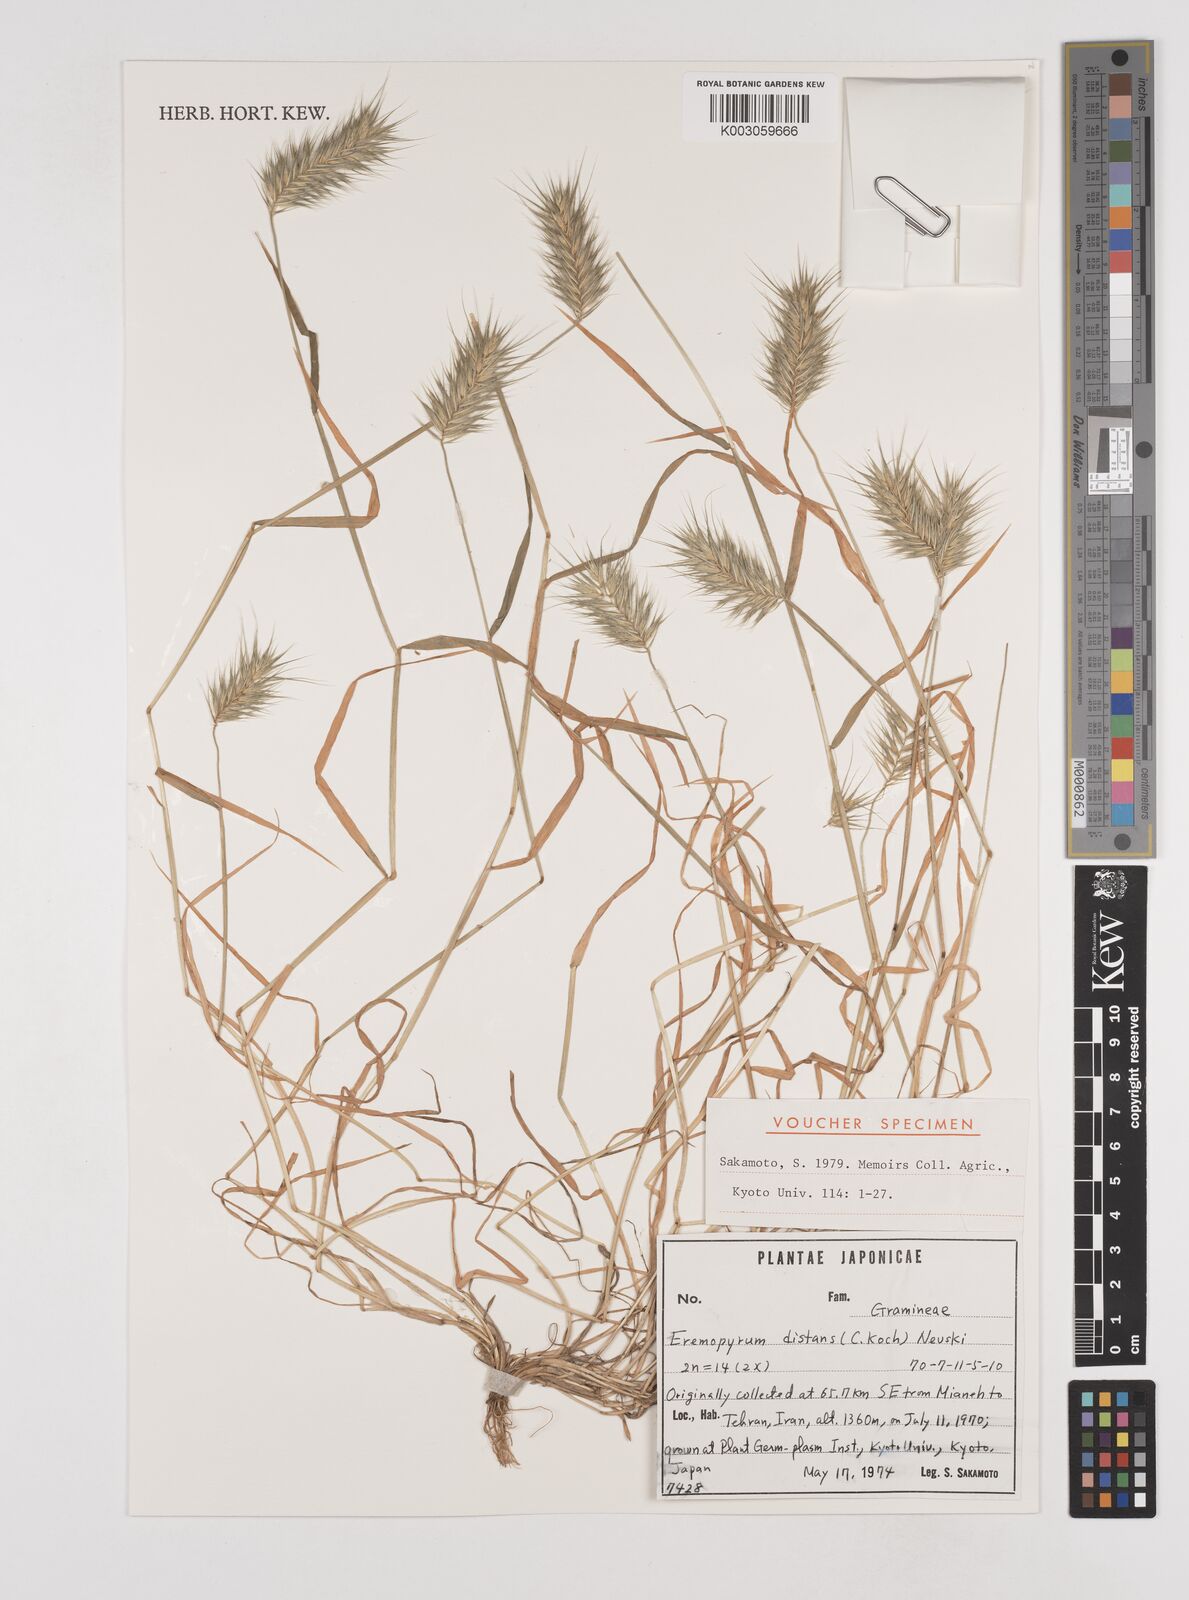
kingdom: Plantae
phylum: Tracheophyta
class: Liliopsida
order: Poales
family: Poaceae
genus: Eremopyrum
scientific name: Eremopyrum distans
